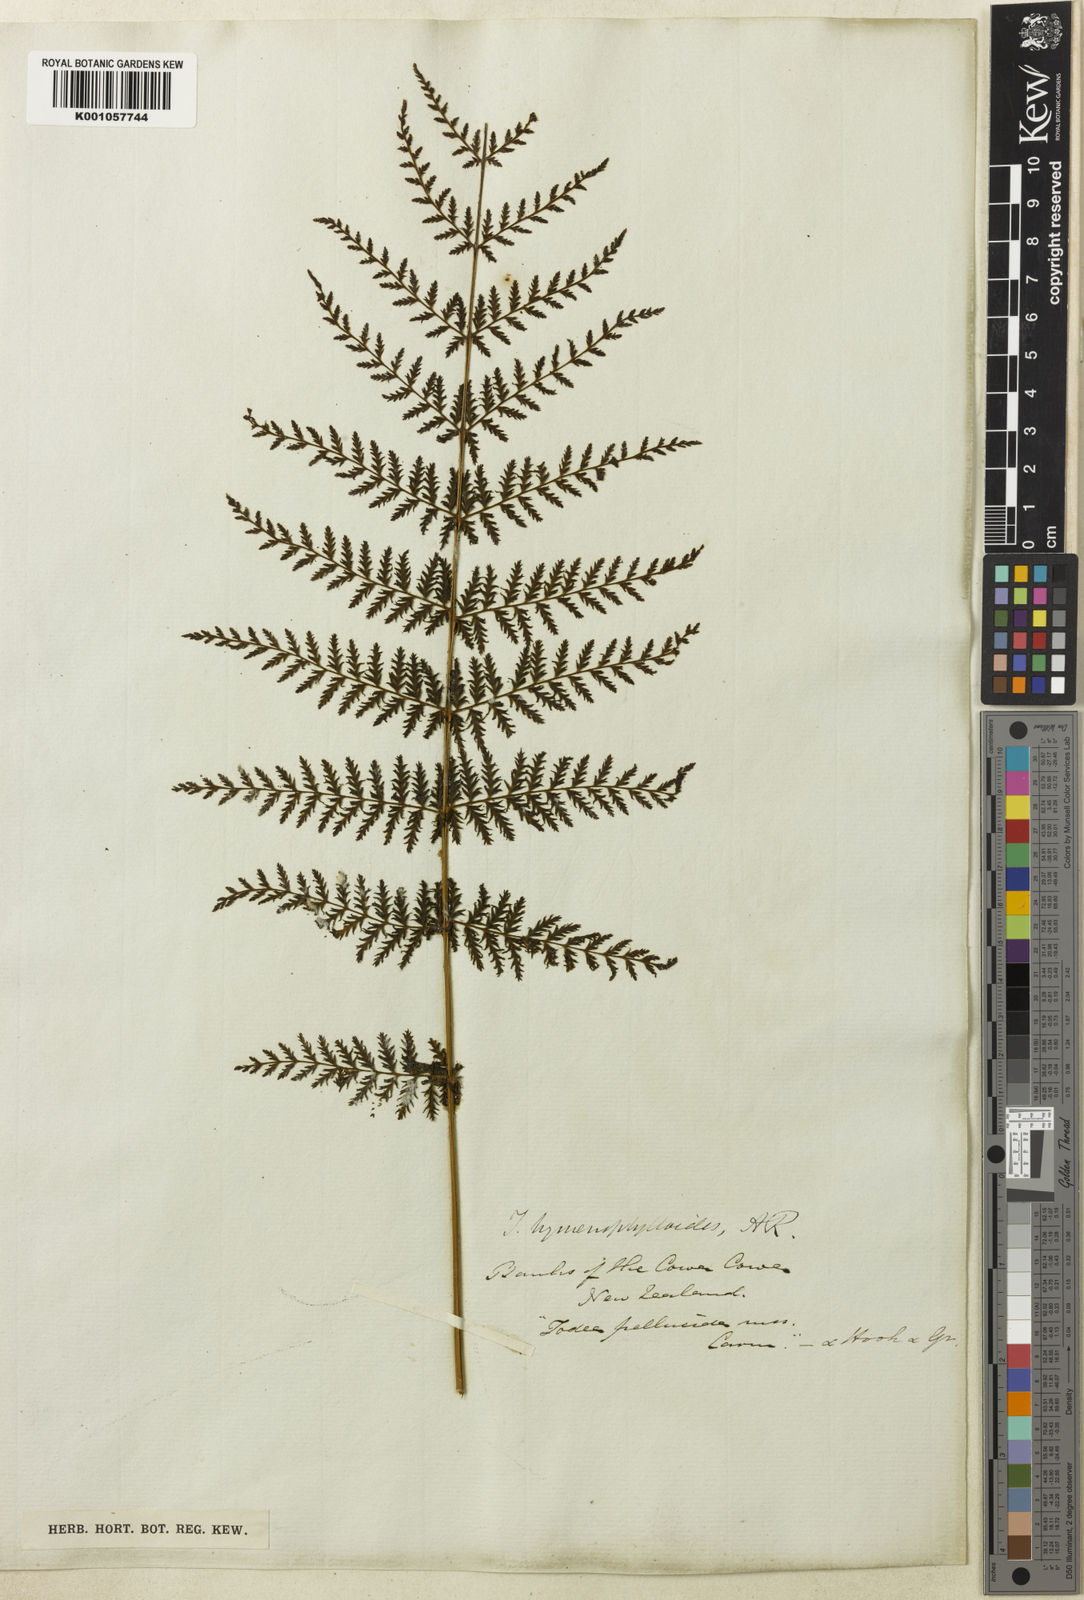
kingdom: Plantae
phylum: Tracheophyta
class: Polypodiopsida
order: Osmundales
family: Osmundaceae
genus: Leptopteris
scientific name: Leptopteris hymenophylloides
